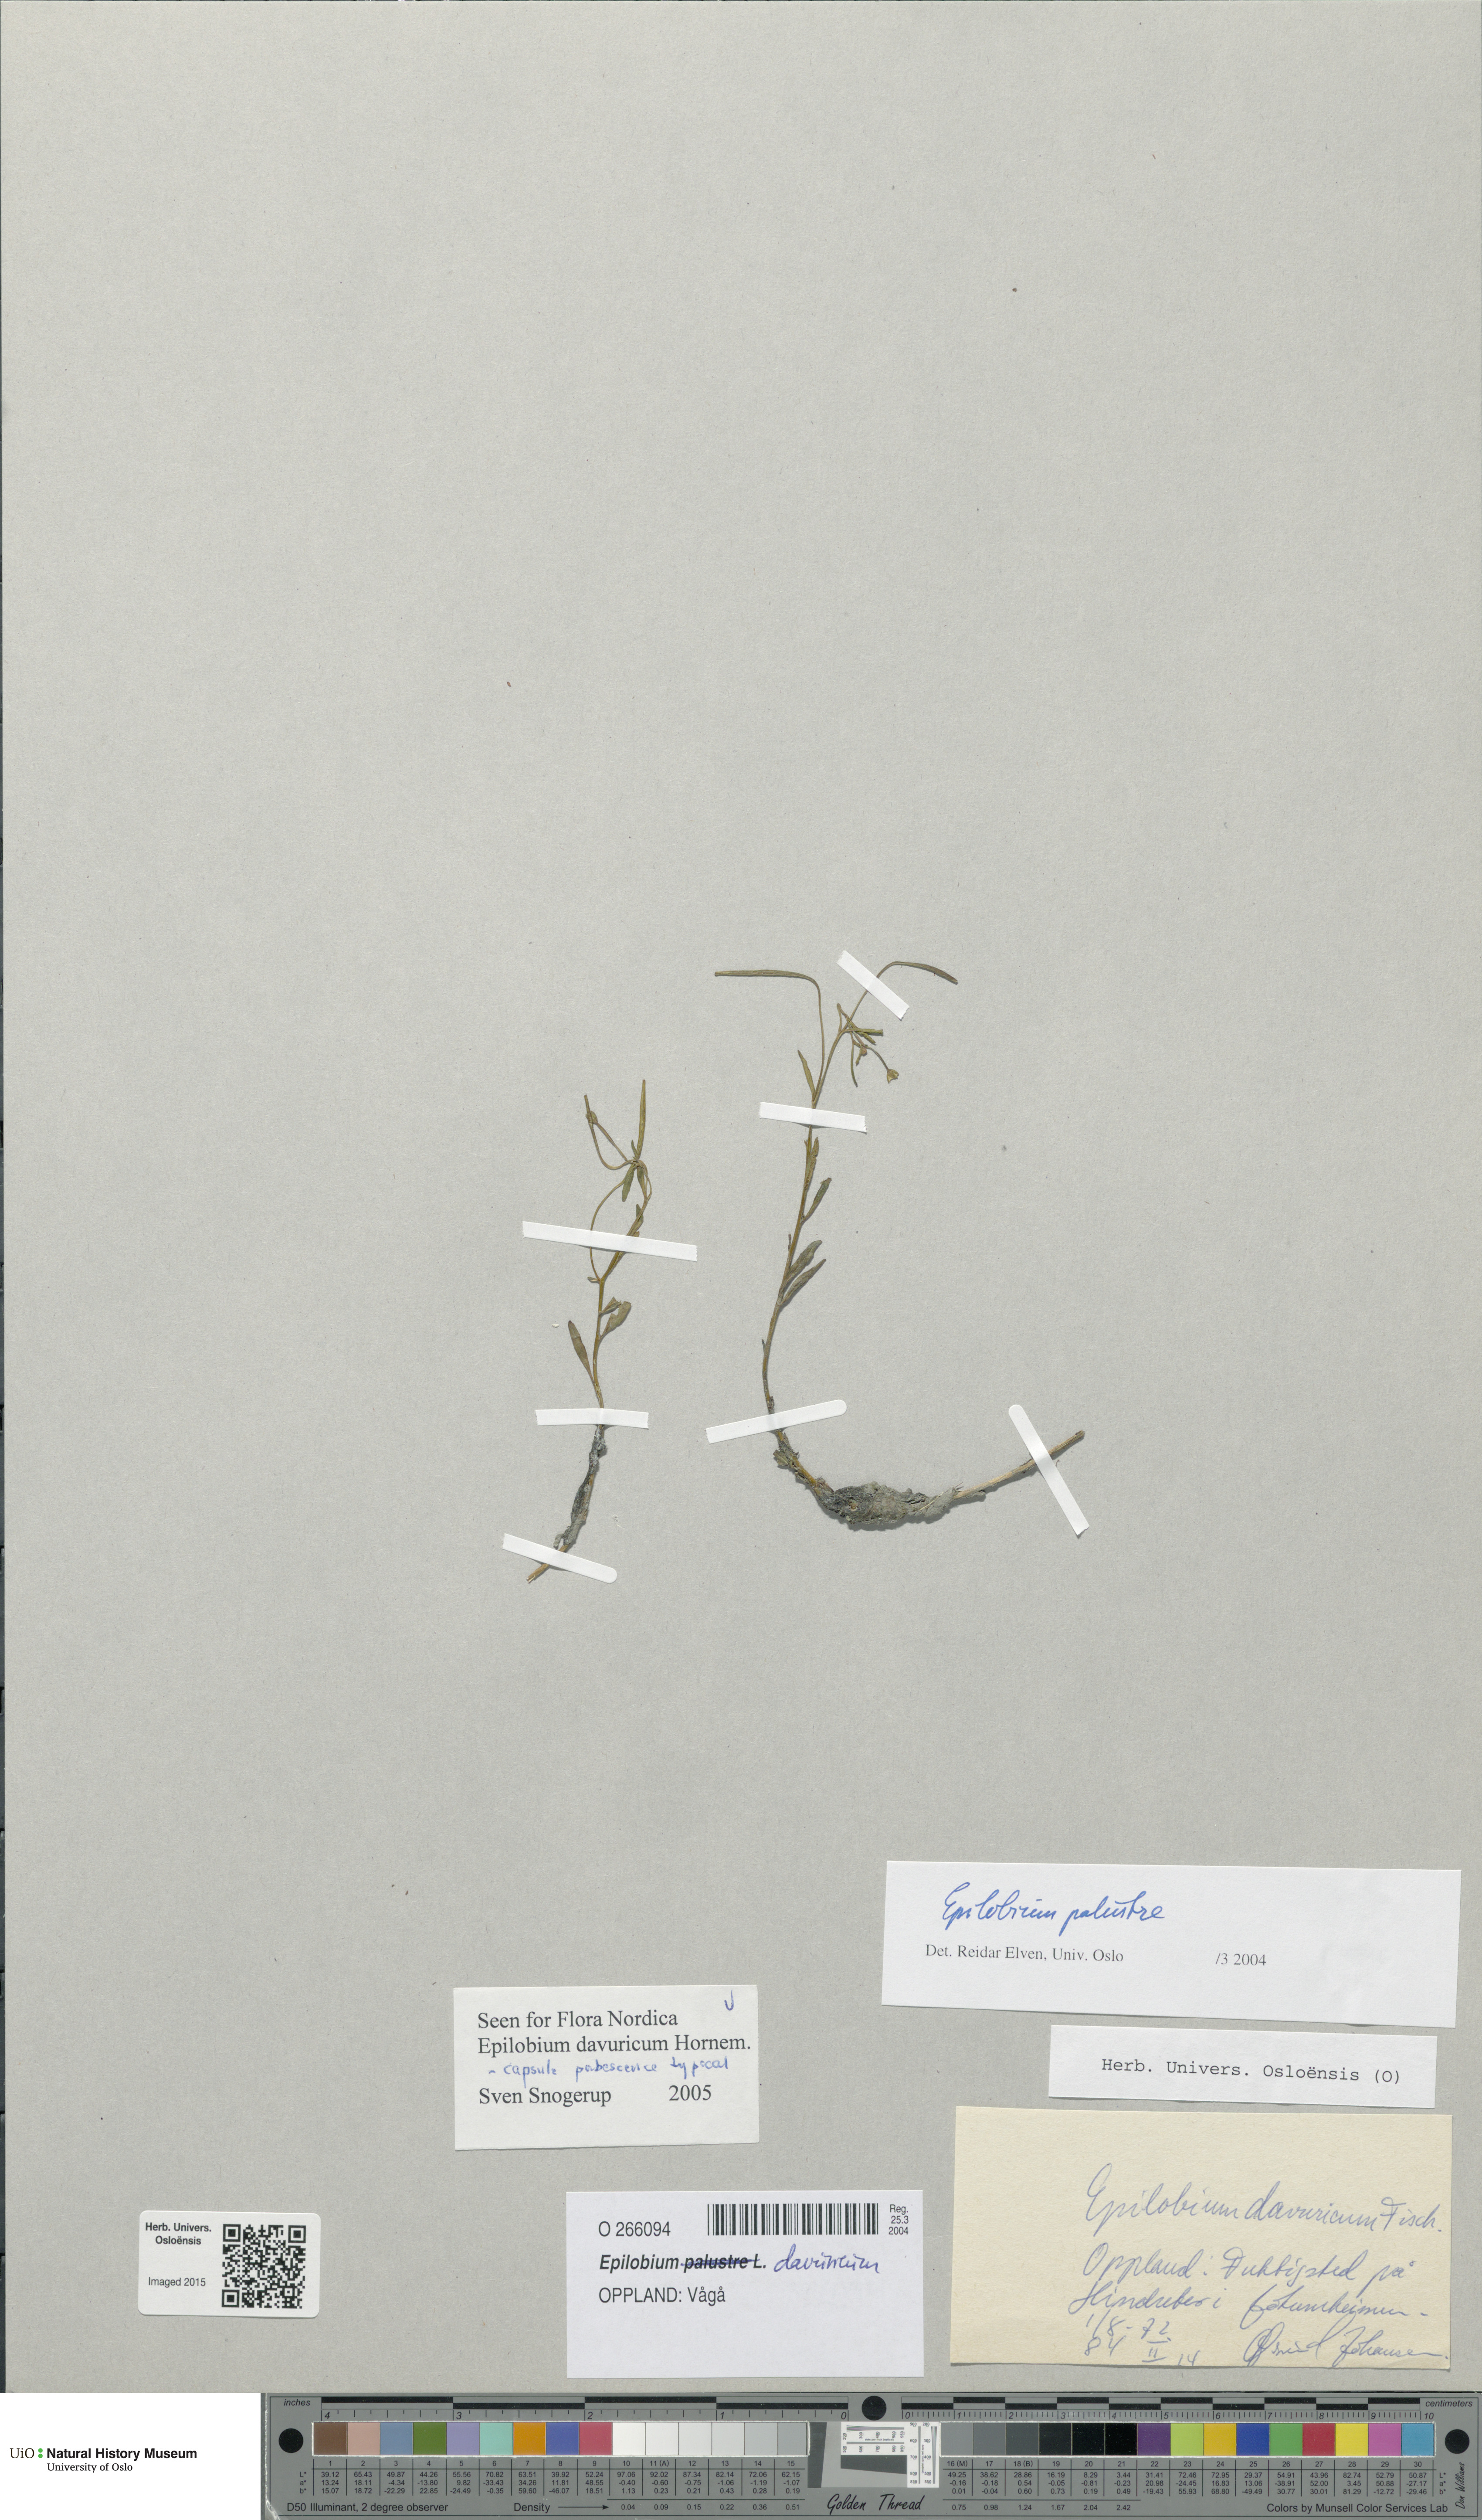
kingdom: Plantae
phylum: Tracheophyta
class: Magnoliopsida
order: Myrtales
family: Onagraceae
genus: Epilobium
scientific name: Epilobium davuricum
